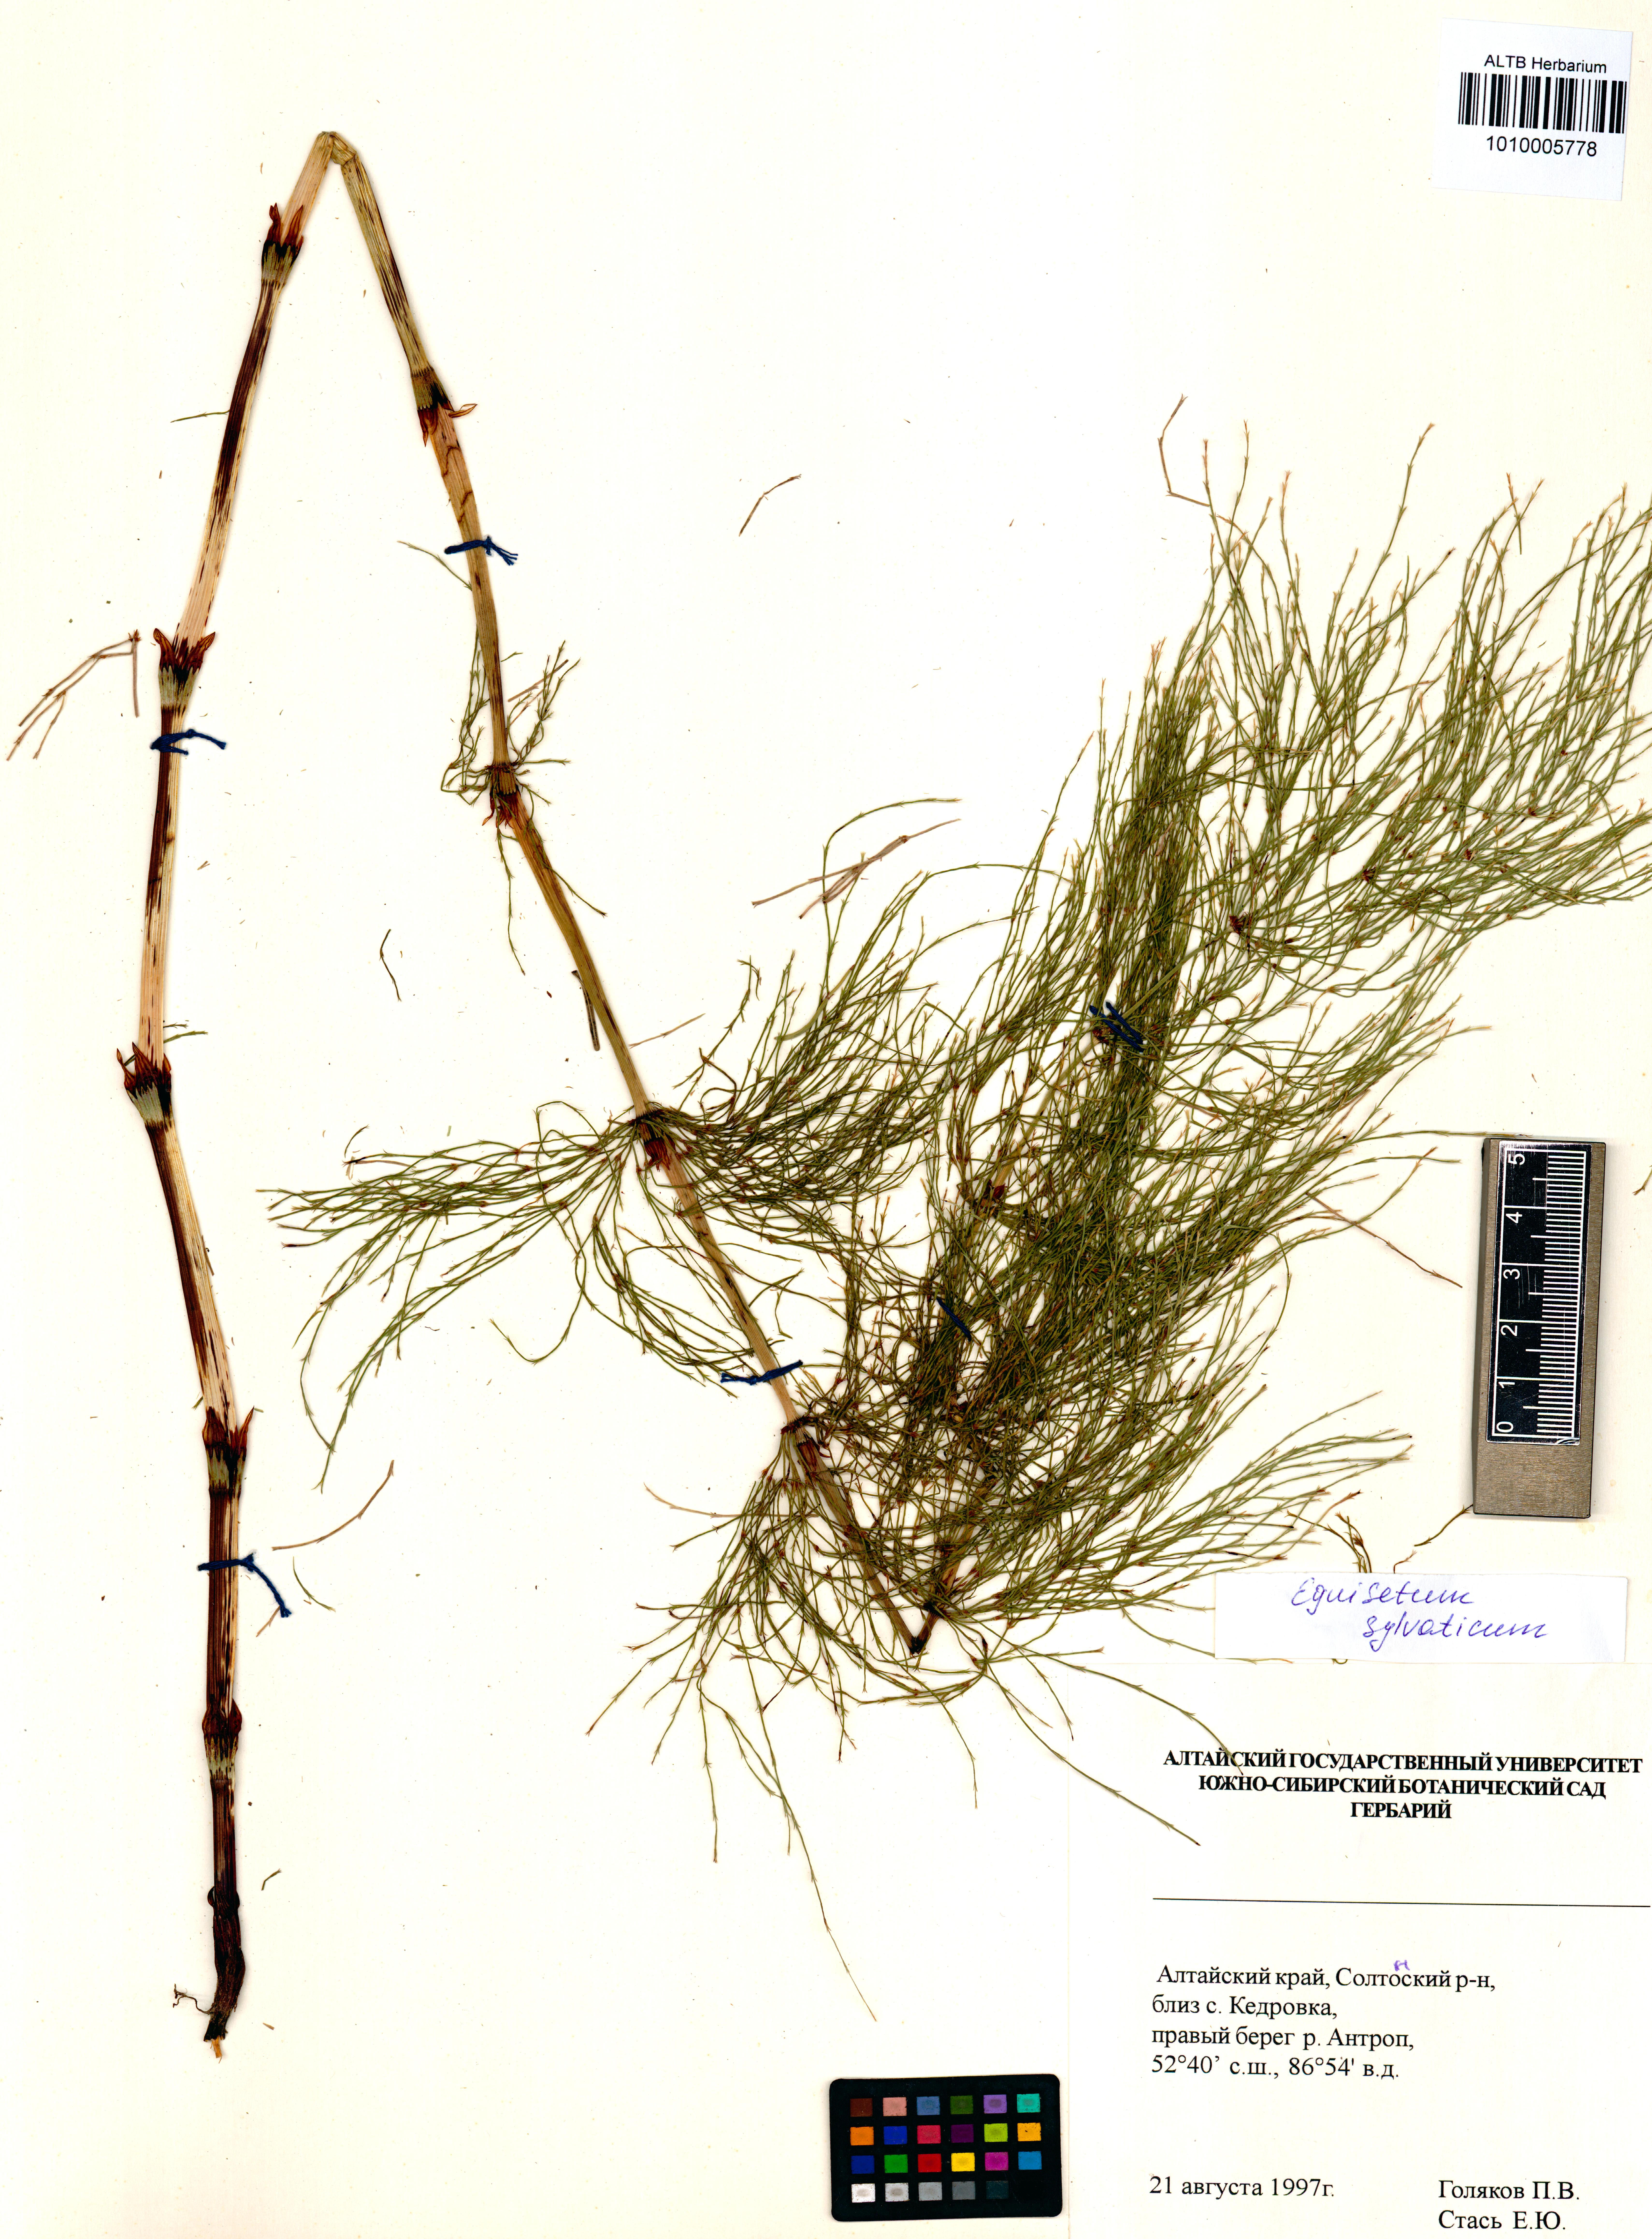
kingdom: Plantae
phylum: Tracheophyta
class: Polypodiopsida
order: Equisetales
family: Equisetaceae
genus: Equisetum
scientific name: Equisetum sylvaticum
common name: Wood horsetail
